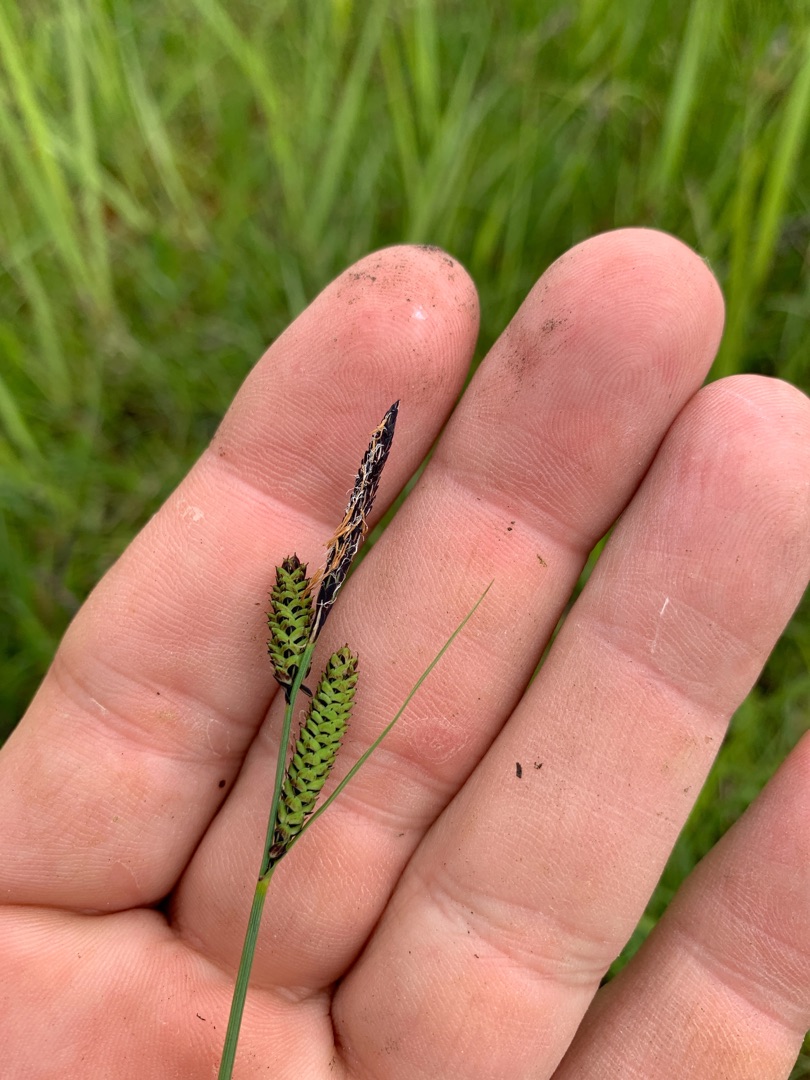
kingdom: Plantae
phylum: Tracheophyta
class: Liliopsida
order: Poales
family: Cyperaceae
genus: Carex
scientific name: Carex nigra
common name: Almindelig star
